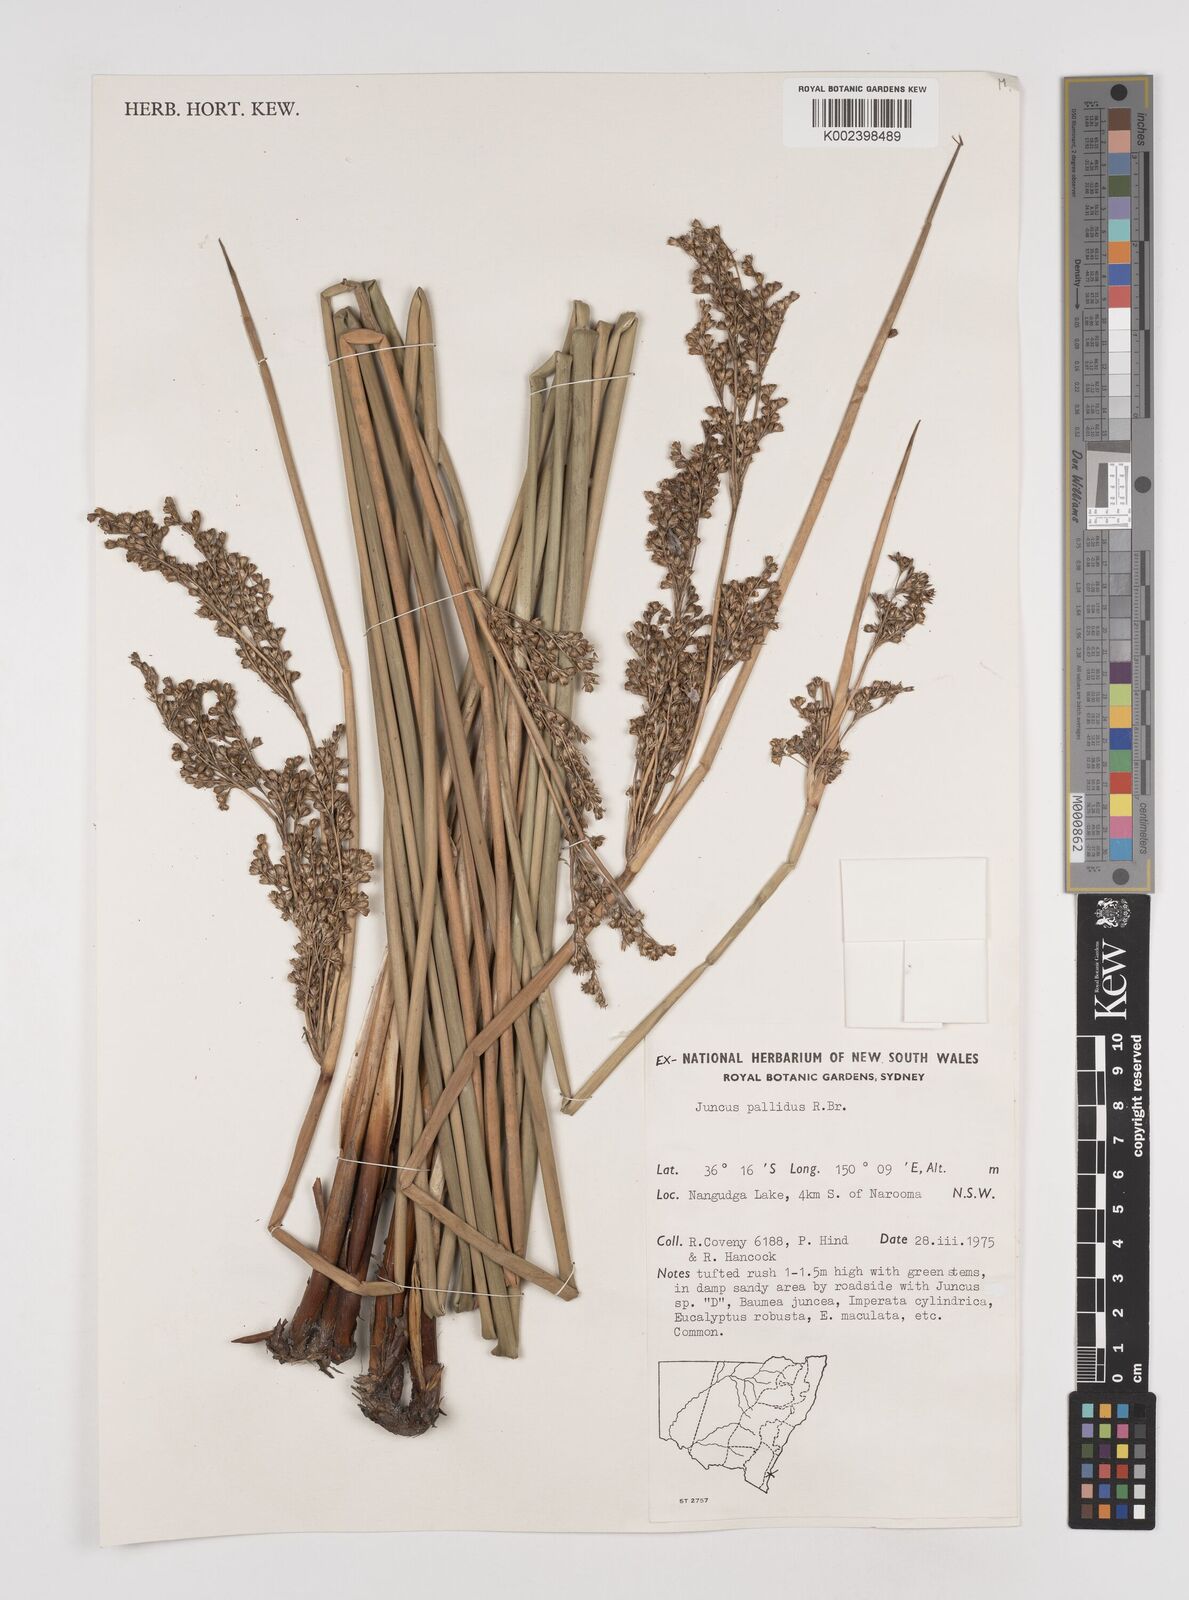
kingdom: Plantae
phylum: Tracheophyta
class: Liliopsida
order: Poales
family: Juncaceae
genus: Juncus
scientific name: Juncus pallidus
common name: Great soft-rush
